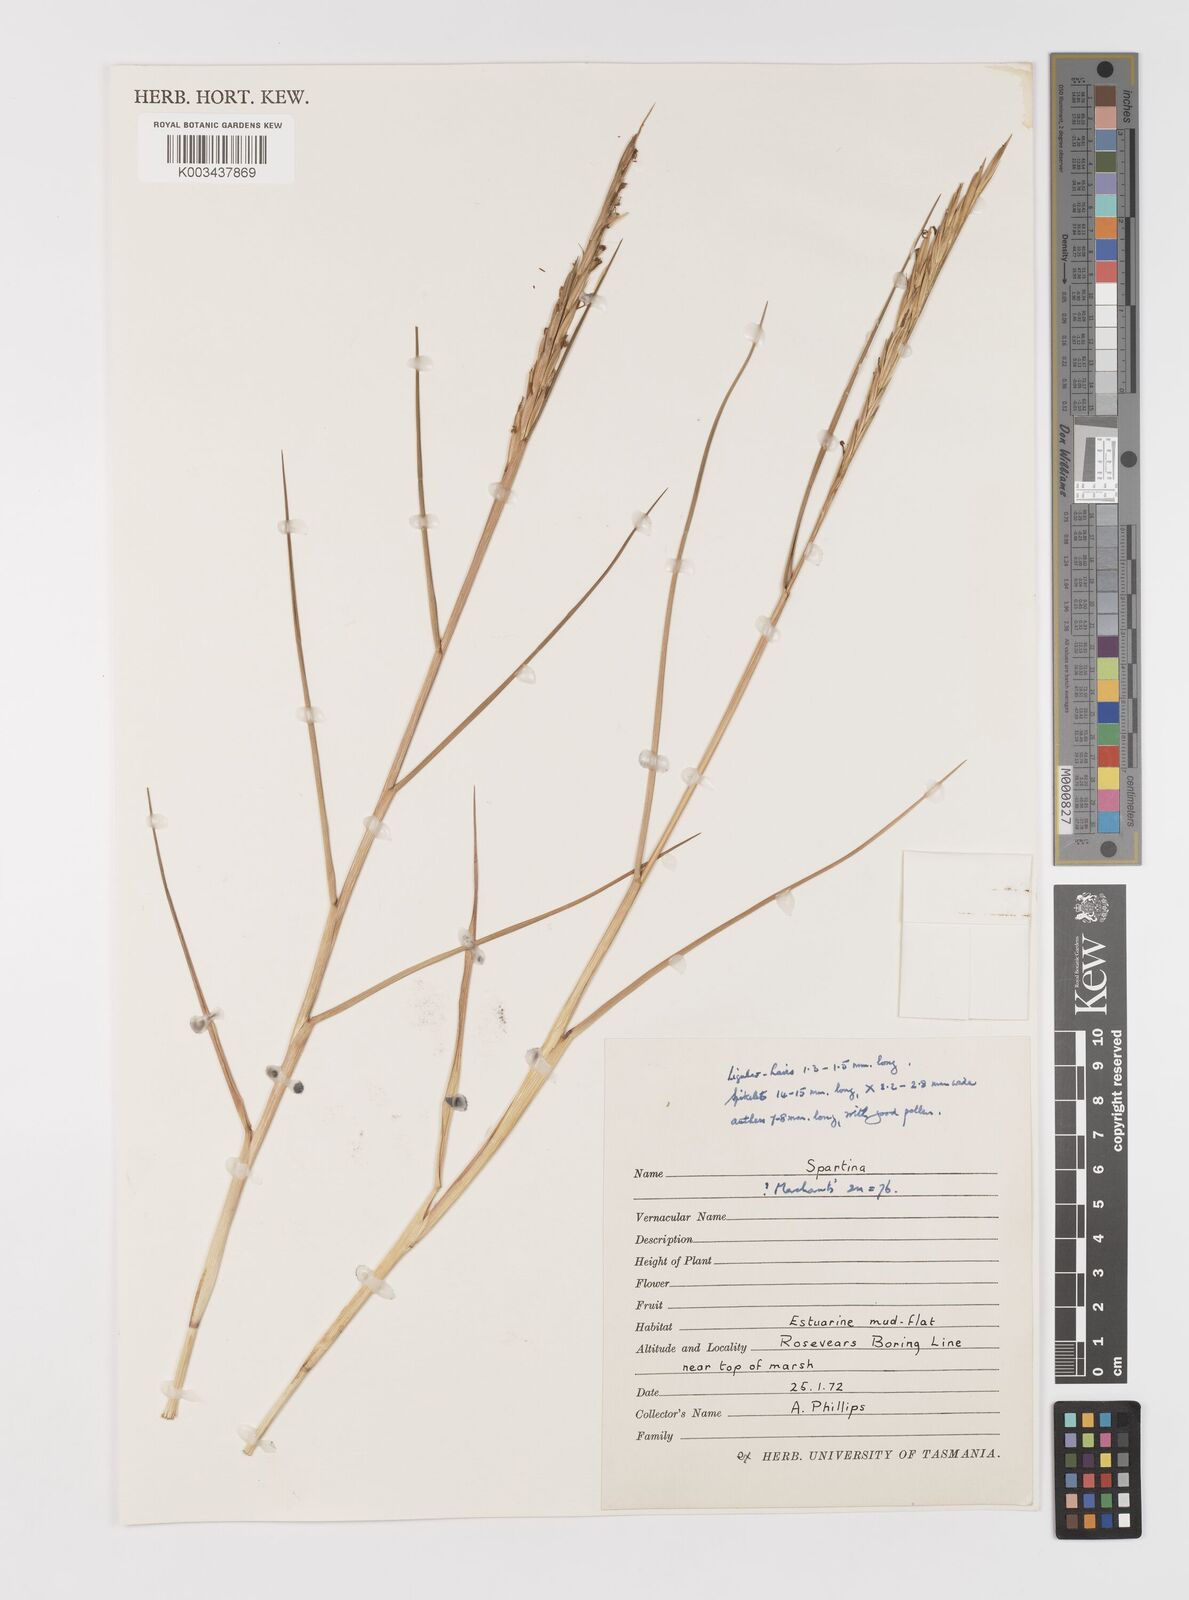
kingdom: Animalia
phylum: Mollusca
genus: Spartina
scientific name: Spartina
